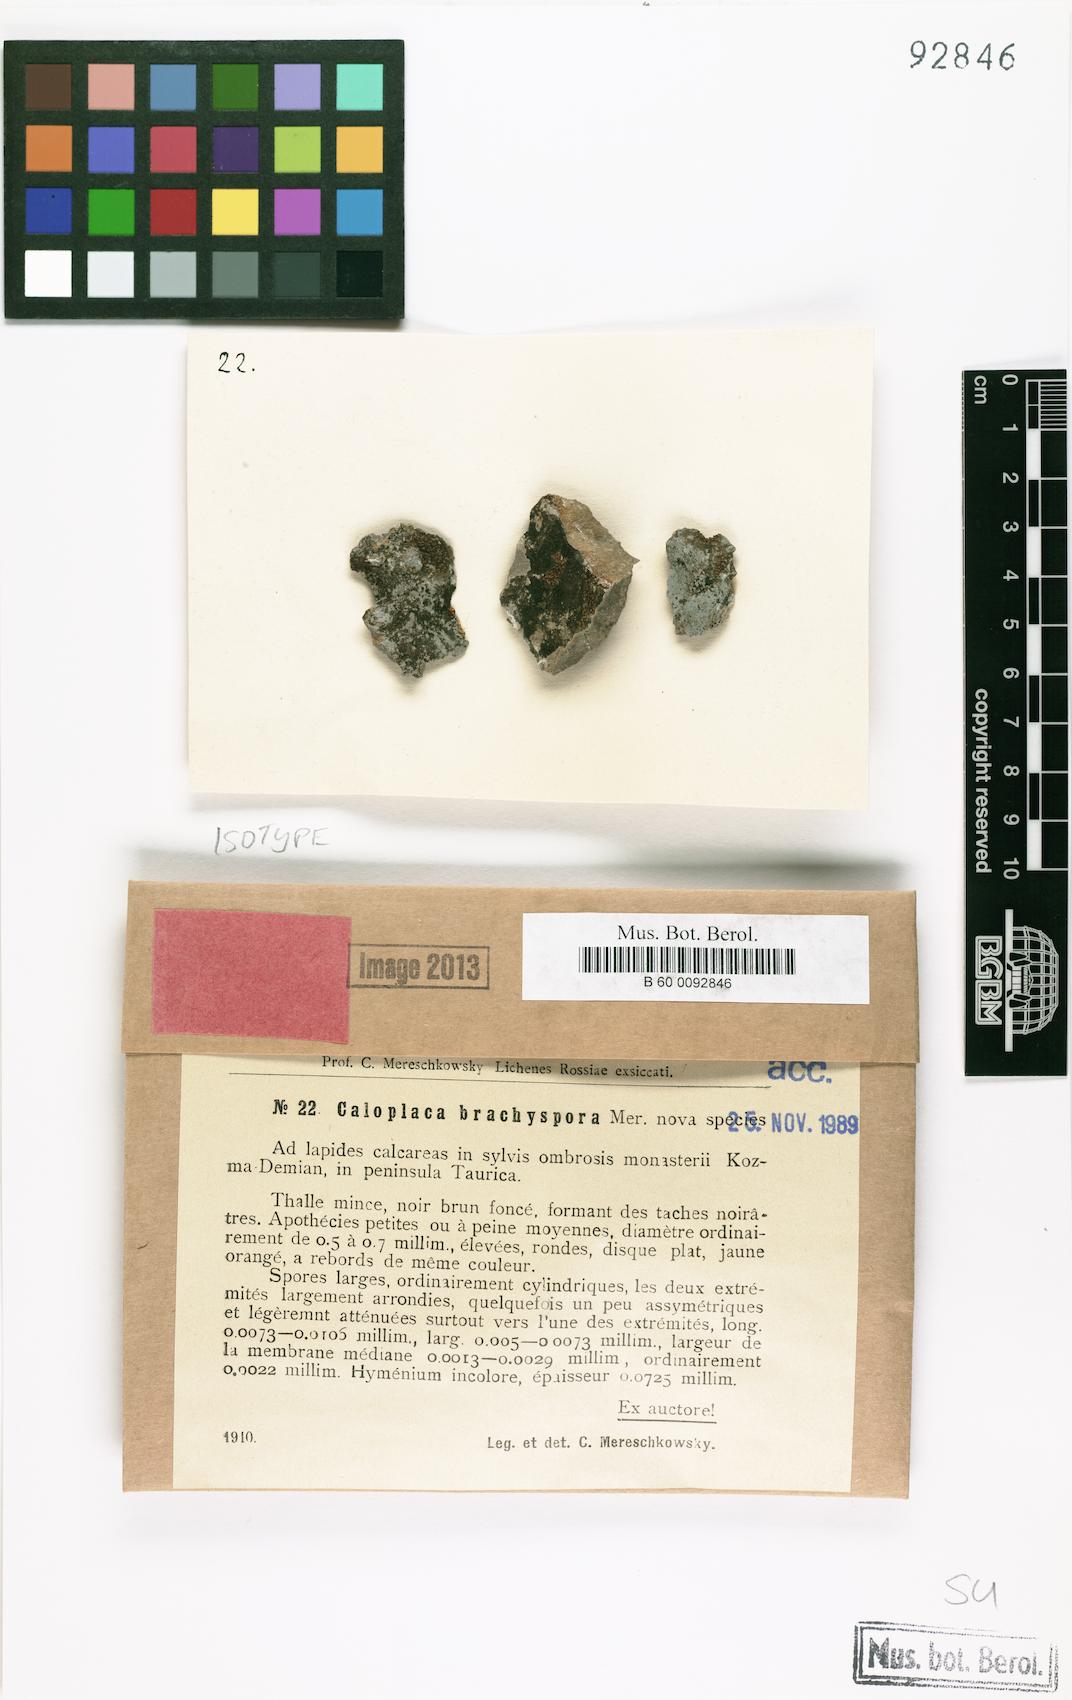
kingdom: Fungi
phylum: Ascomycota
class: Lecanoromycetes
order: Teloschistales
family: Teloschistaceae
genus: Athallia
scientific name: Athallia brachyspora
